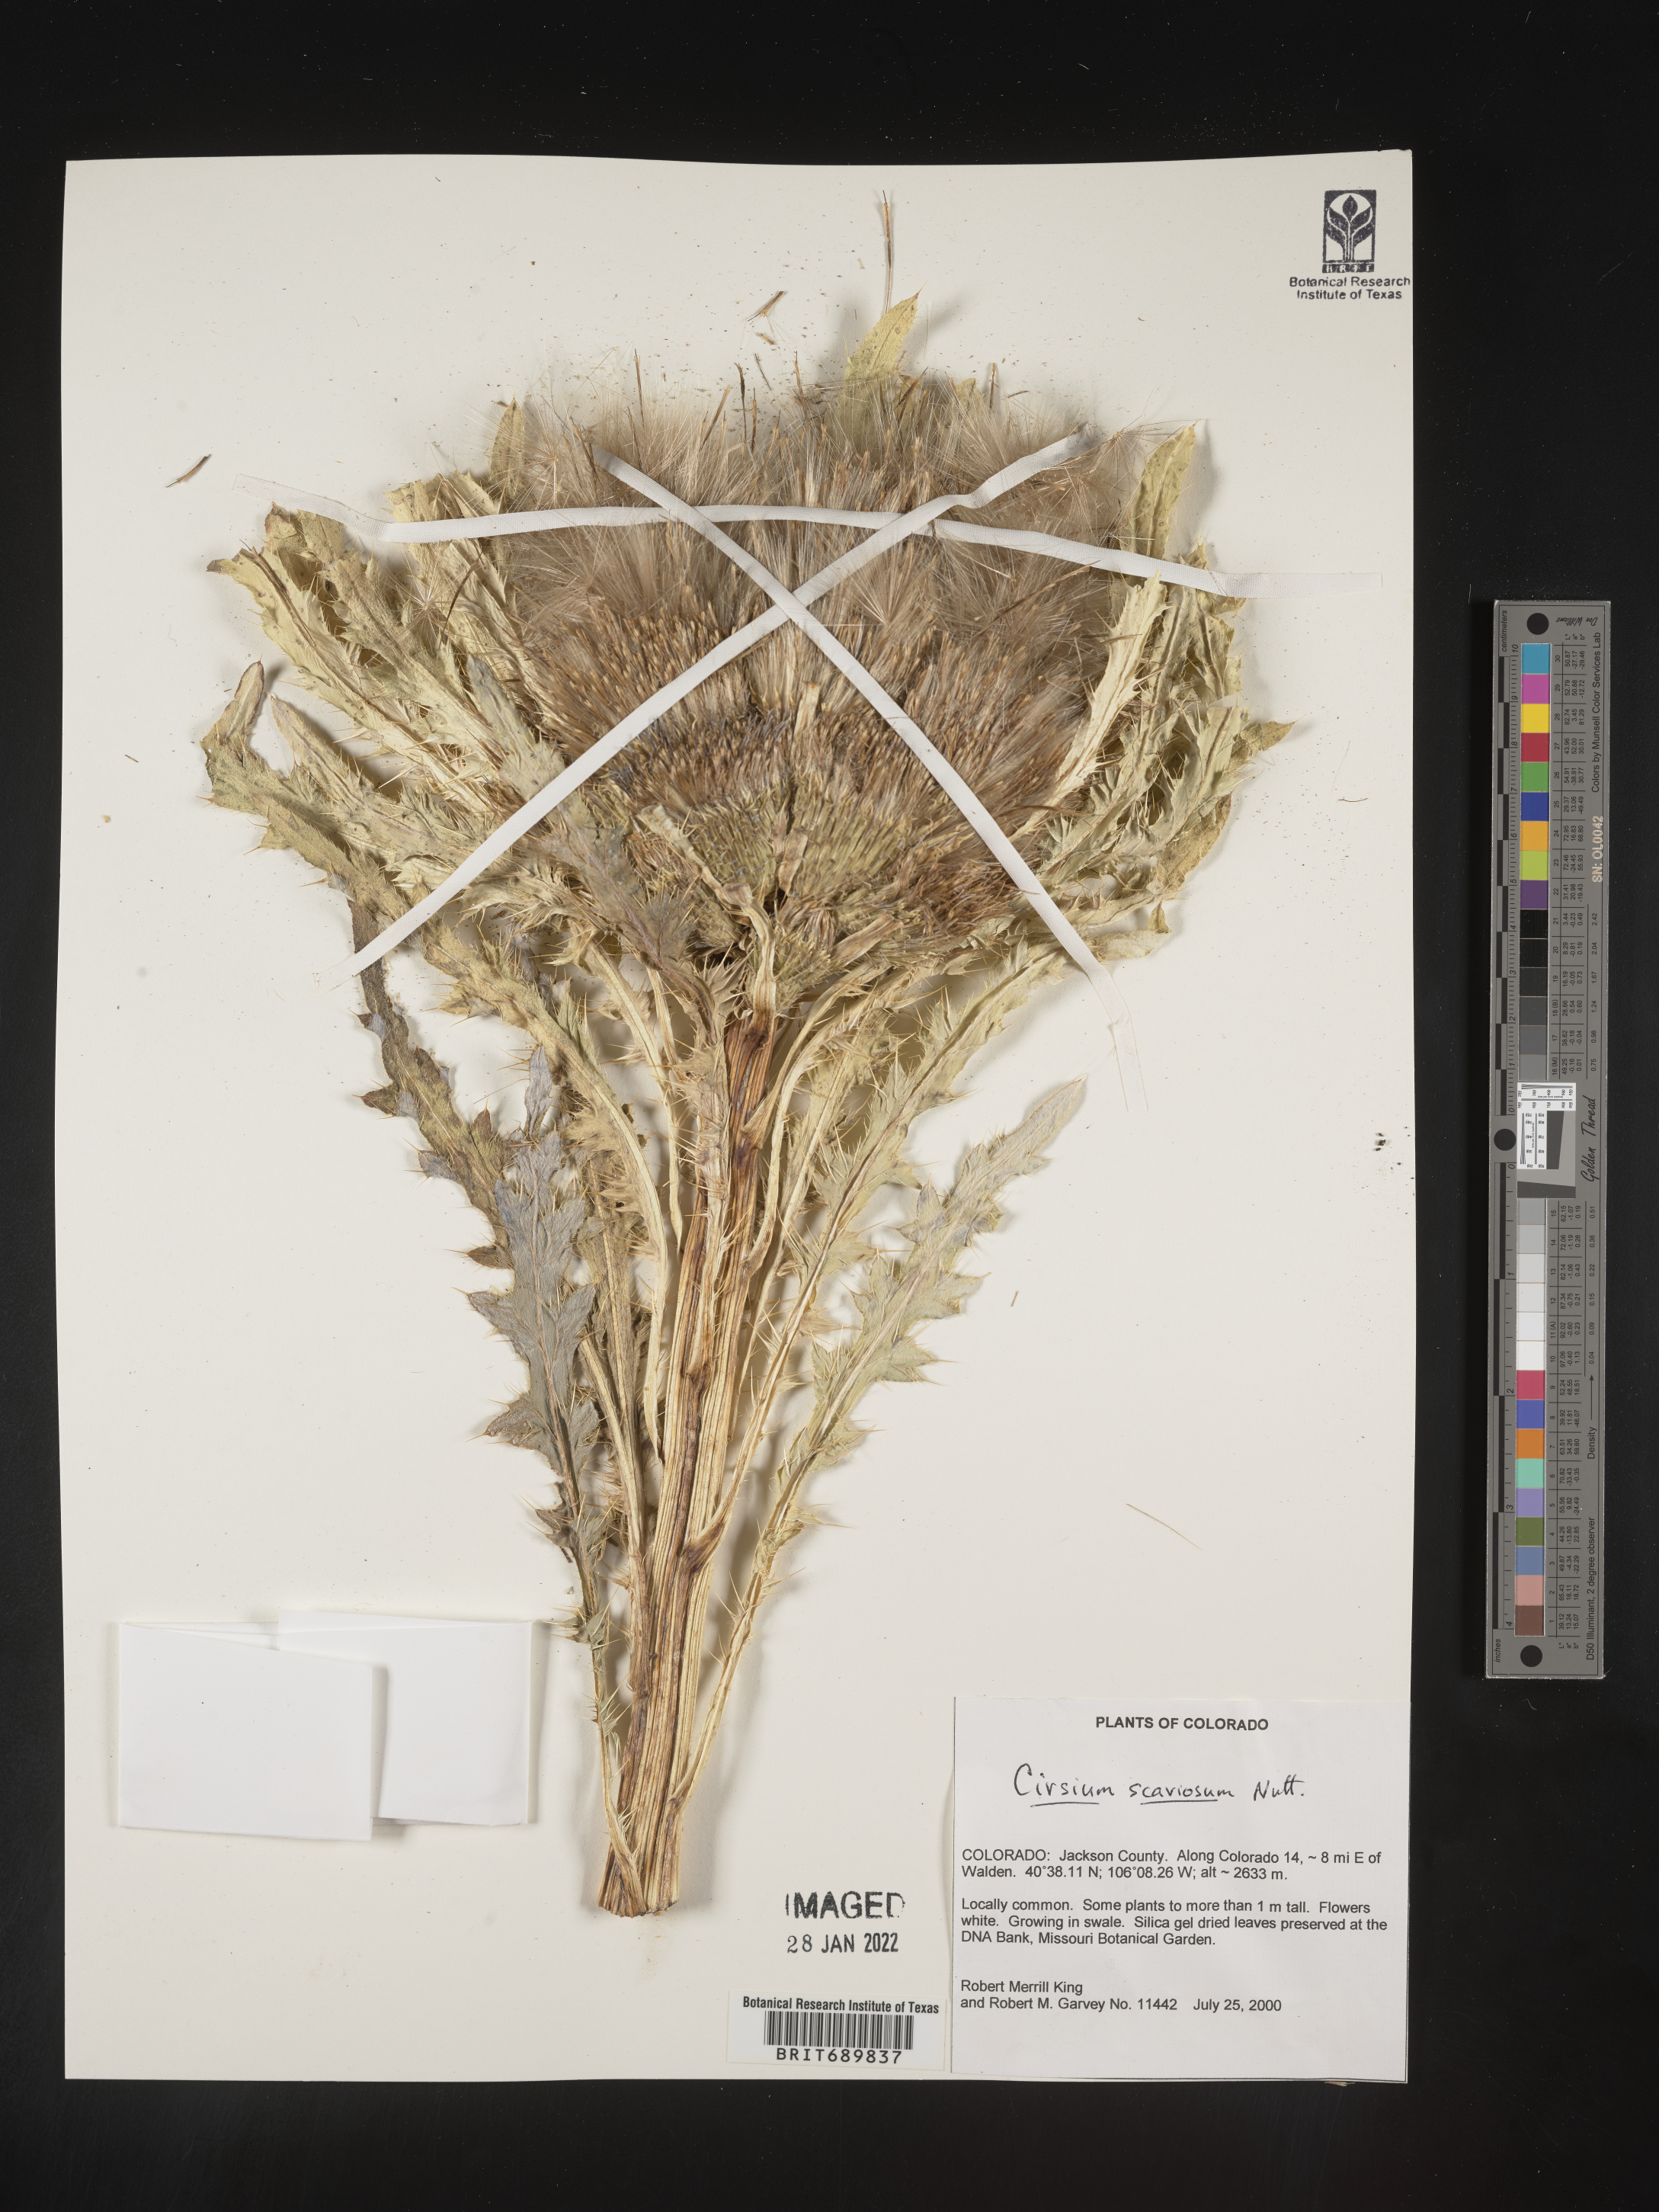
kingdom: Plantae
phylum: Tracheophyta
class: Magnoliopsida
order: Asterales
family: Asteraceae
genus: Cirsium
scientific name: Cirsium scariosum
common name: Meadow thistle
